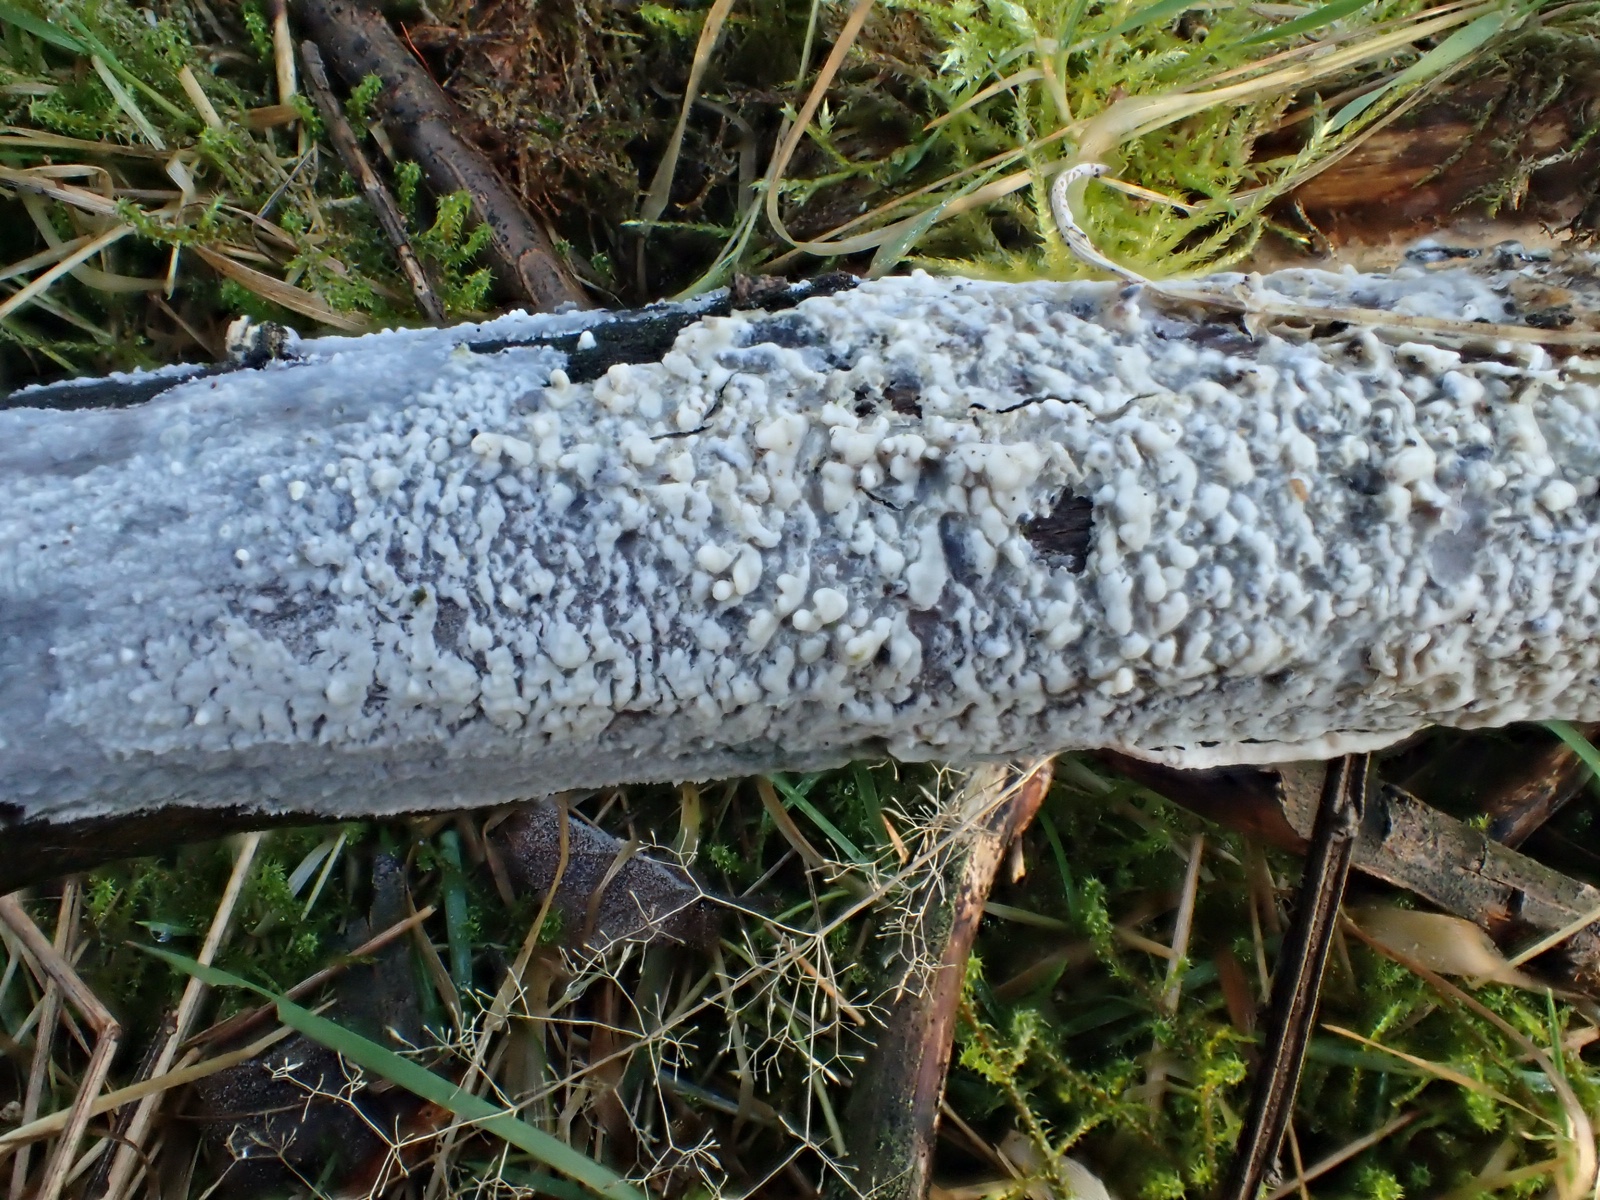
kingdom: Fungi
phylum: Basidiomycota
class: Agaricomycetes
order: Agaricales
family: Radulomycetaceae
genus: Radulomyces
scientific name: Radulomyces confluens
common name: glat naftalinskind
